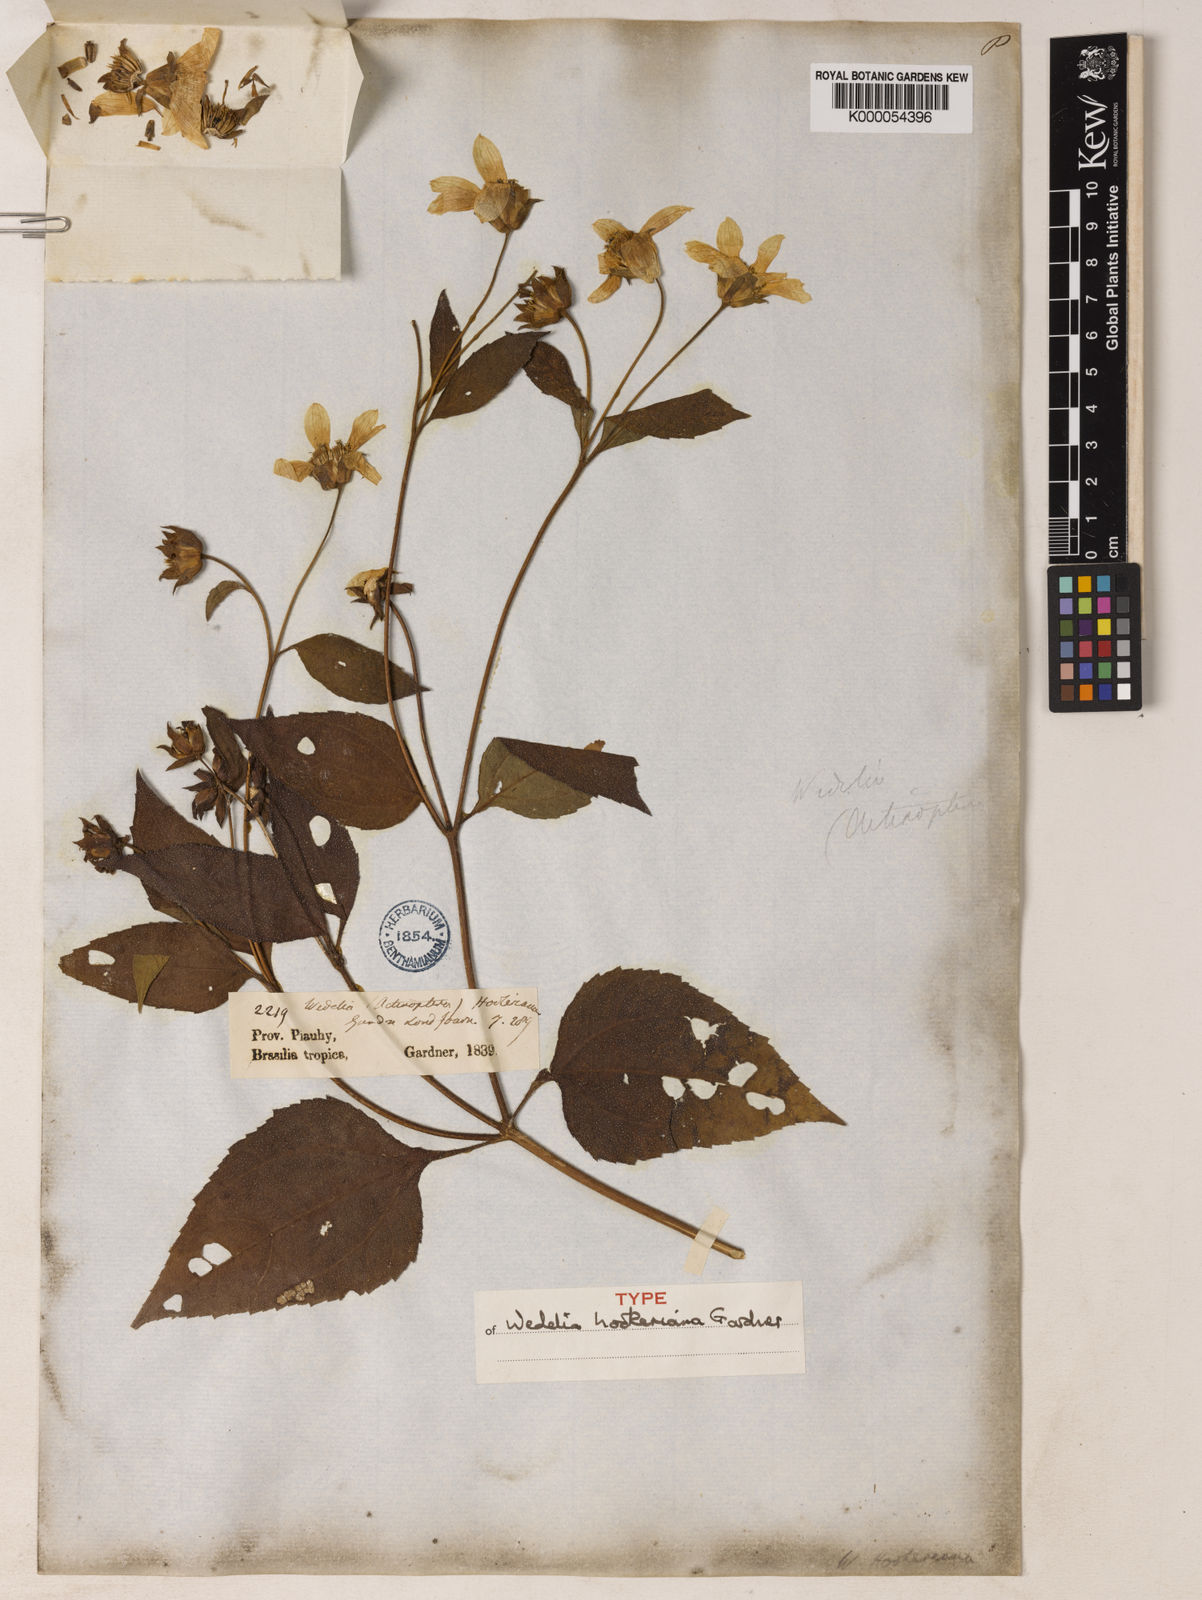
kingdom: Plantae
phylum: Tracheophyta
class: Magnoliopsida
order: Asterales
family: Asteraceae
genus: Aspilia
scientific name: Aspilia
